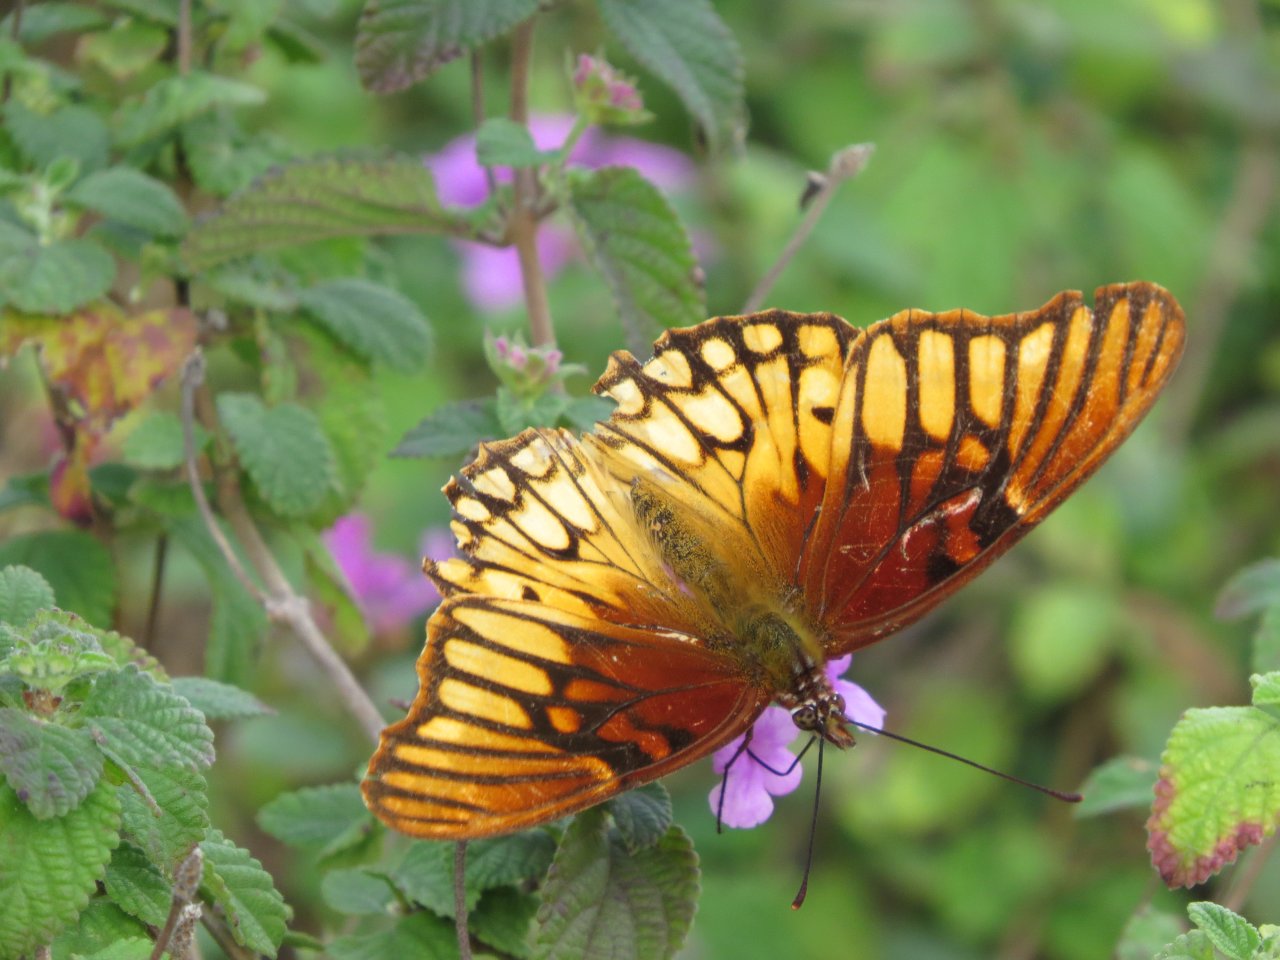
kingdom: Animalia
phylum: Arthropoda
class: Insecta
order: Lepidoptera
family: Nymphalidae
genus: Dione
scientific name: Dione moneta
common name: Mexican Silverspot
